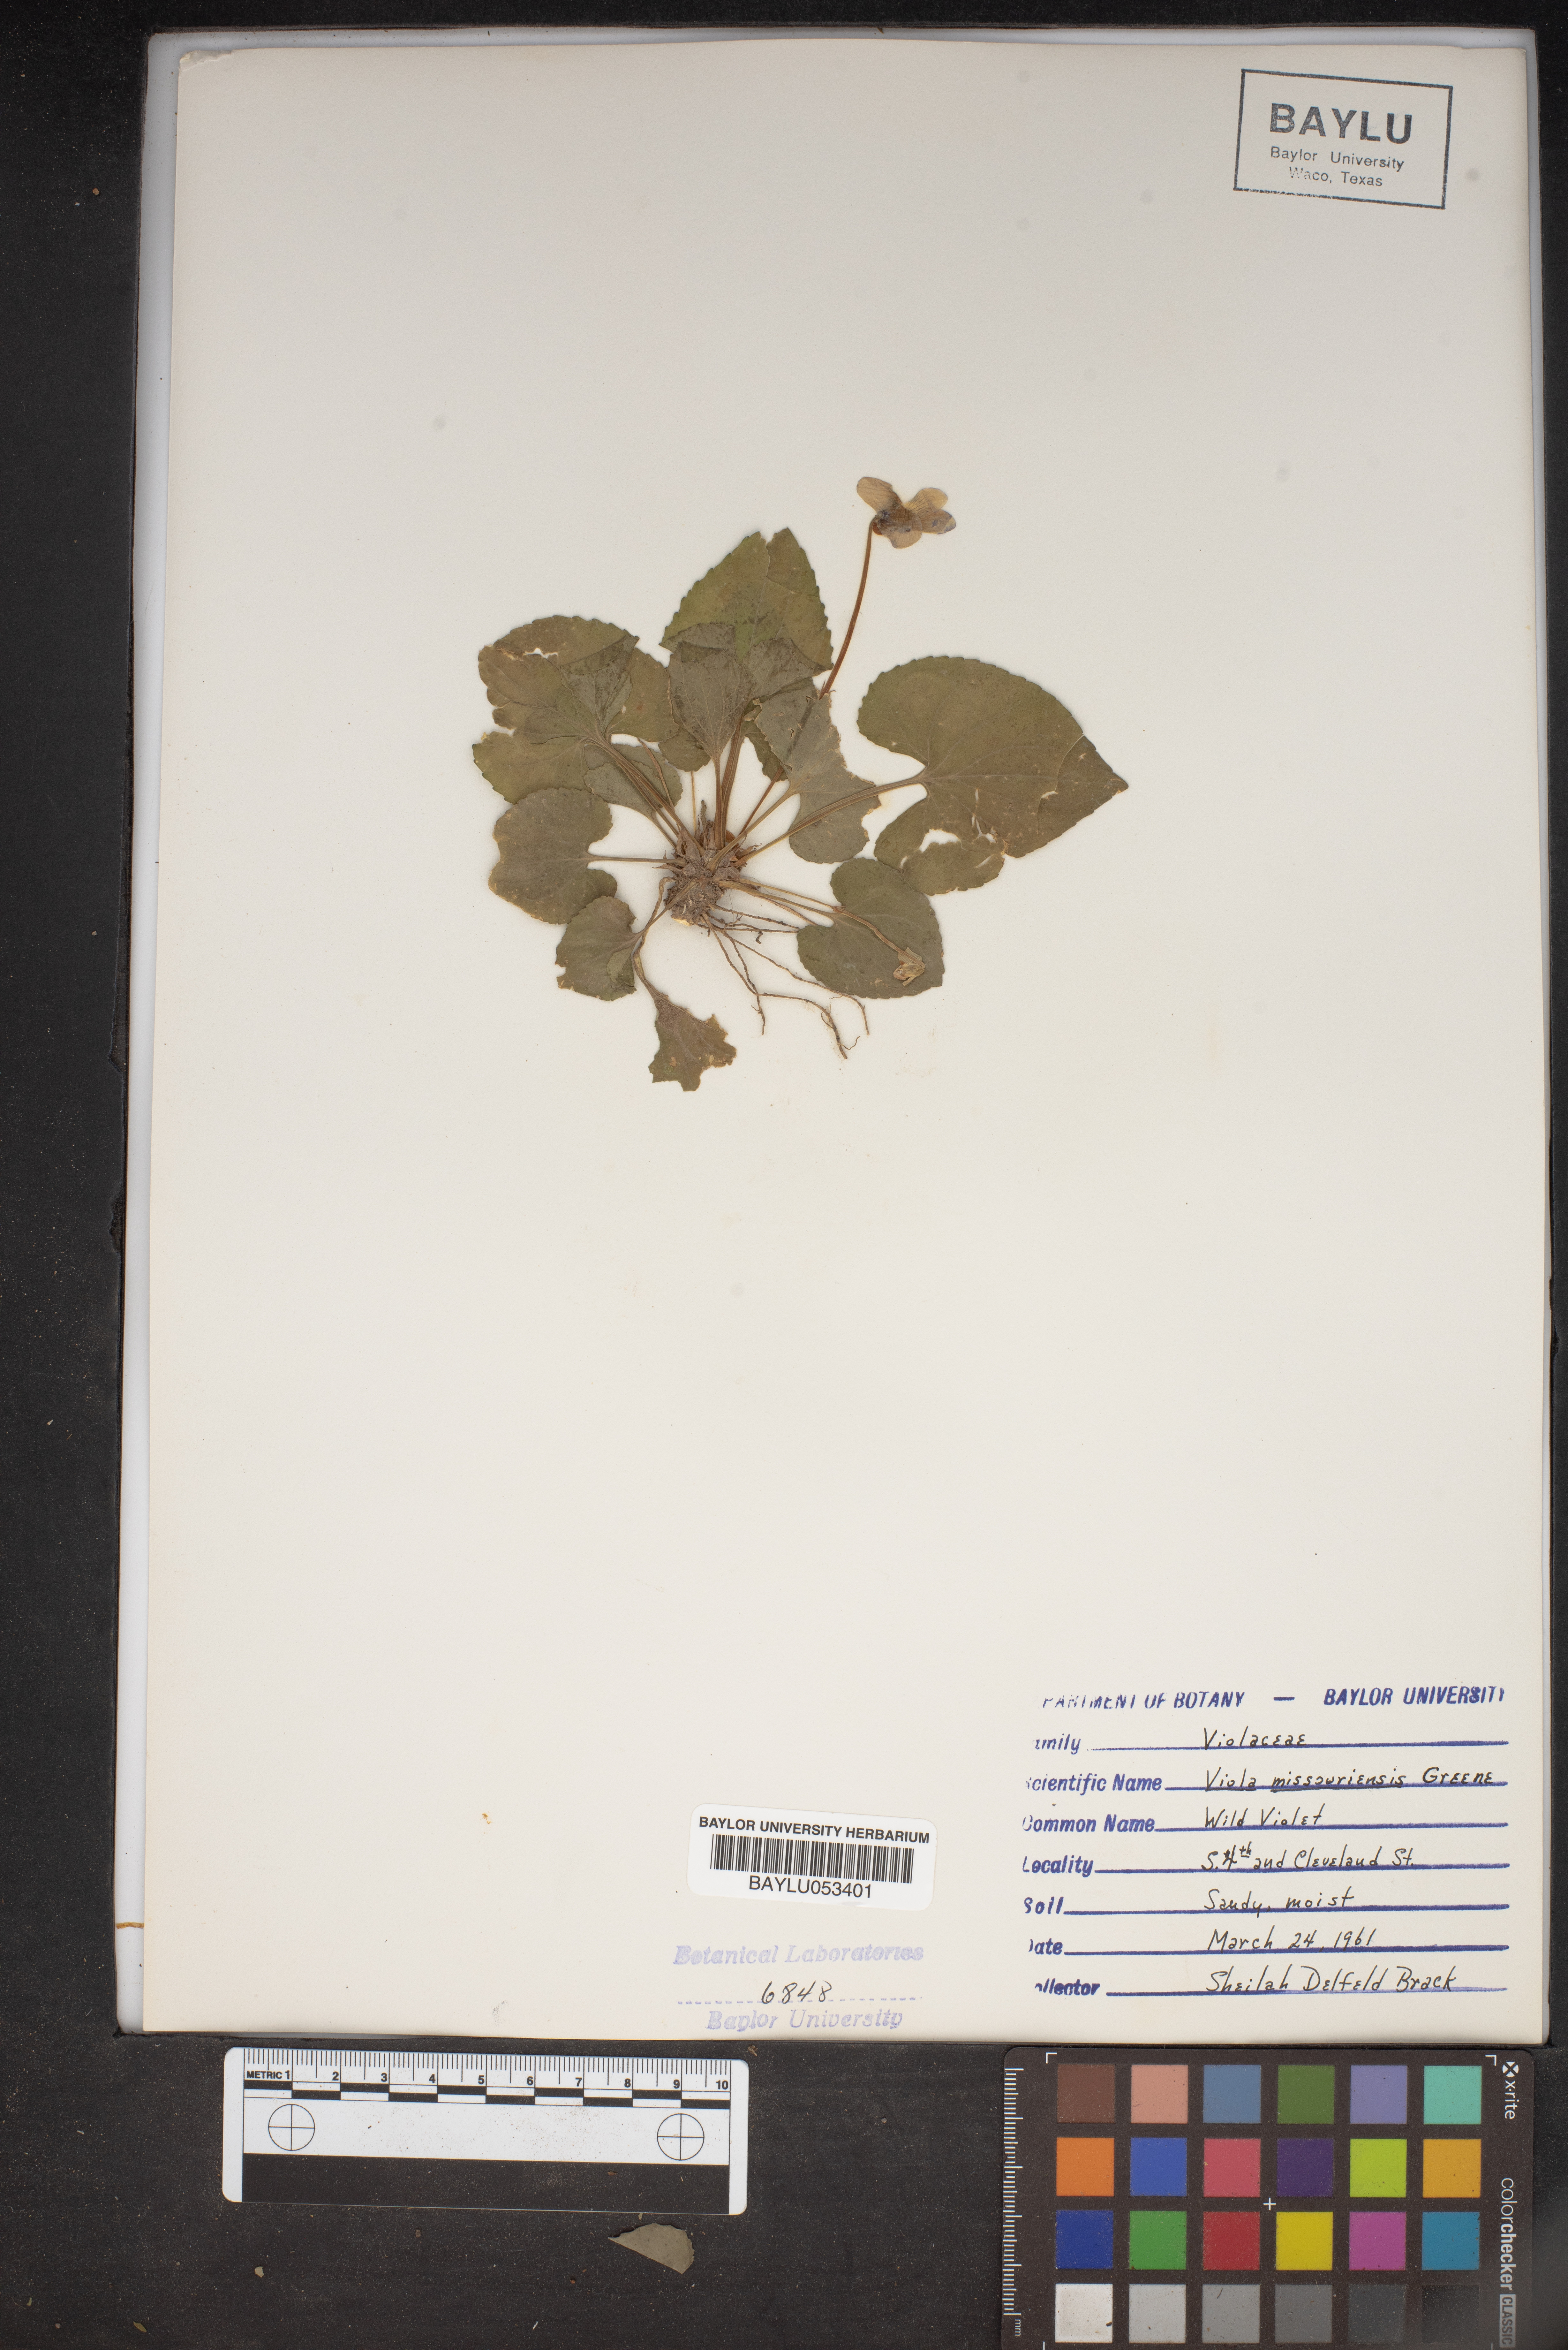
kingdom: Plantae
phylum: Tracheophyta
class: Magnoliopsida
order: Malpighiales
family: Violaceae
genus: Viola
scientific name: Viola missouriensis
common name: Missouri violet
